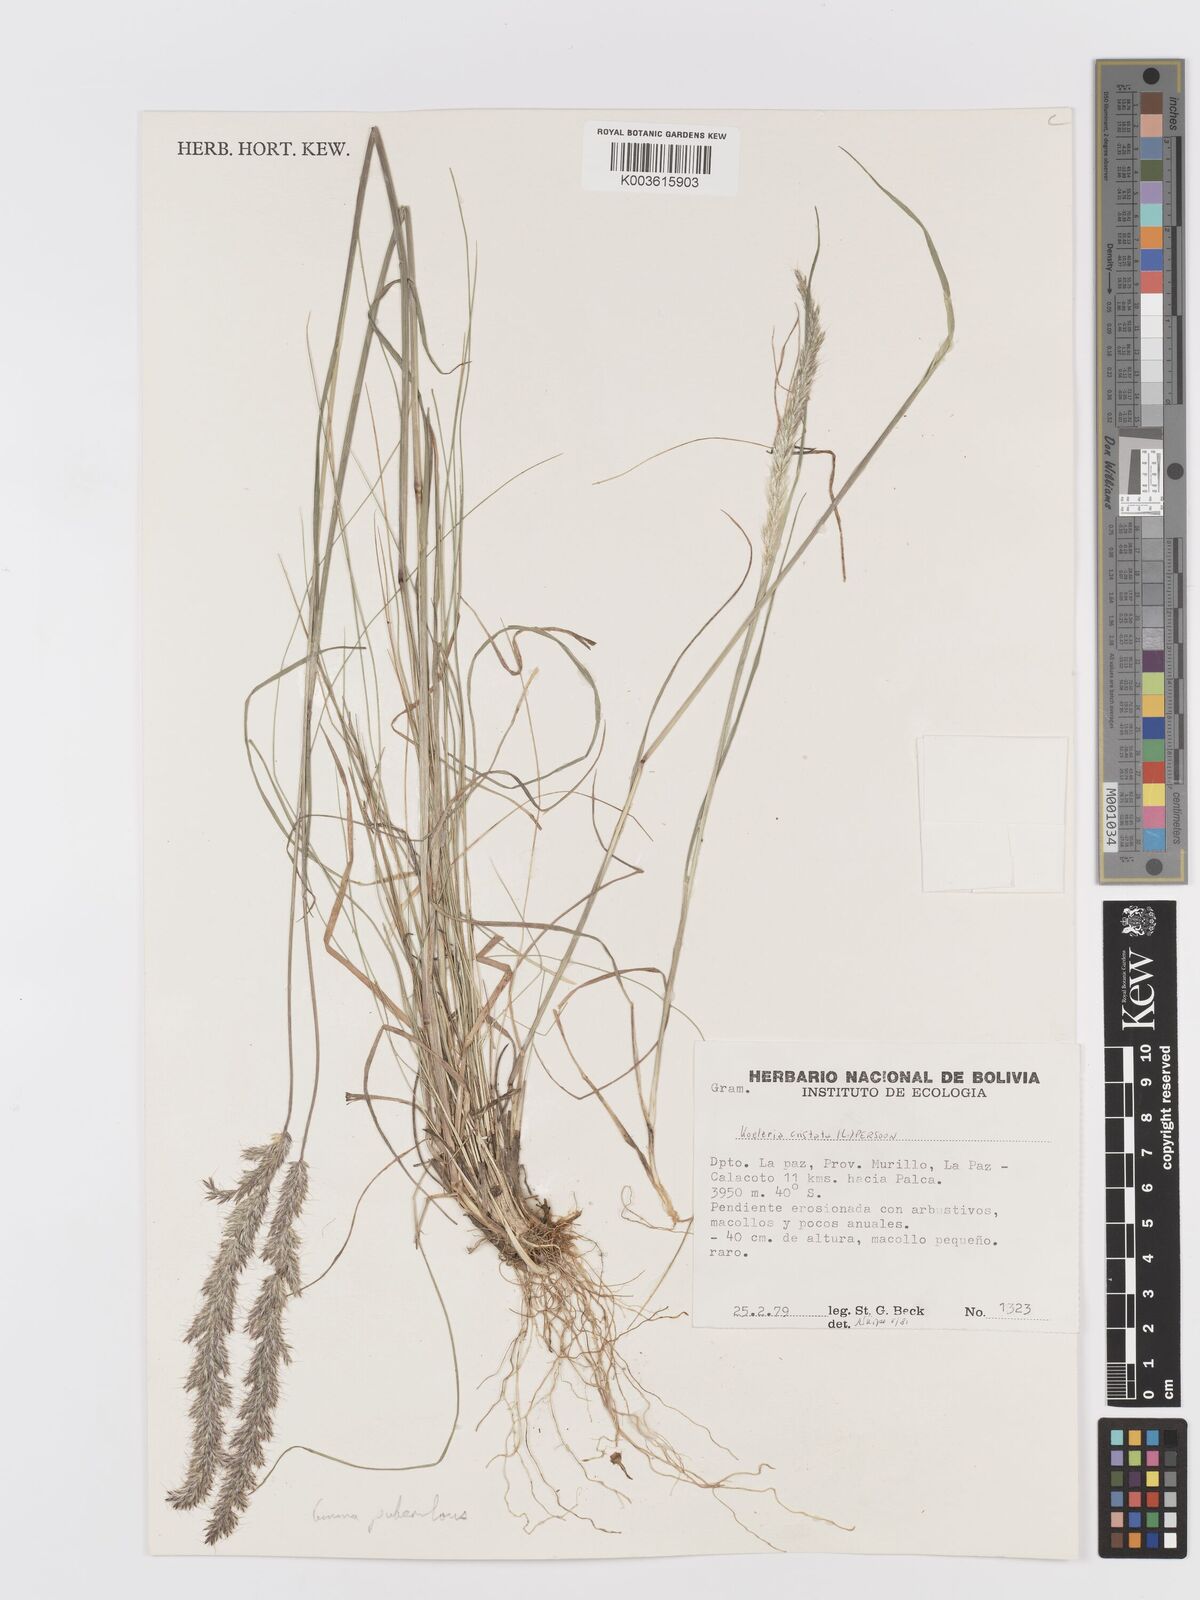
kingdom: Plantae
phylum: Tracheophyta
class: Liliopsida
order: Poales
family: Poaceae
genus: Koeleria
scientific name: Koeleria spicata
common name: Mountain trisetum
